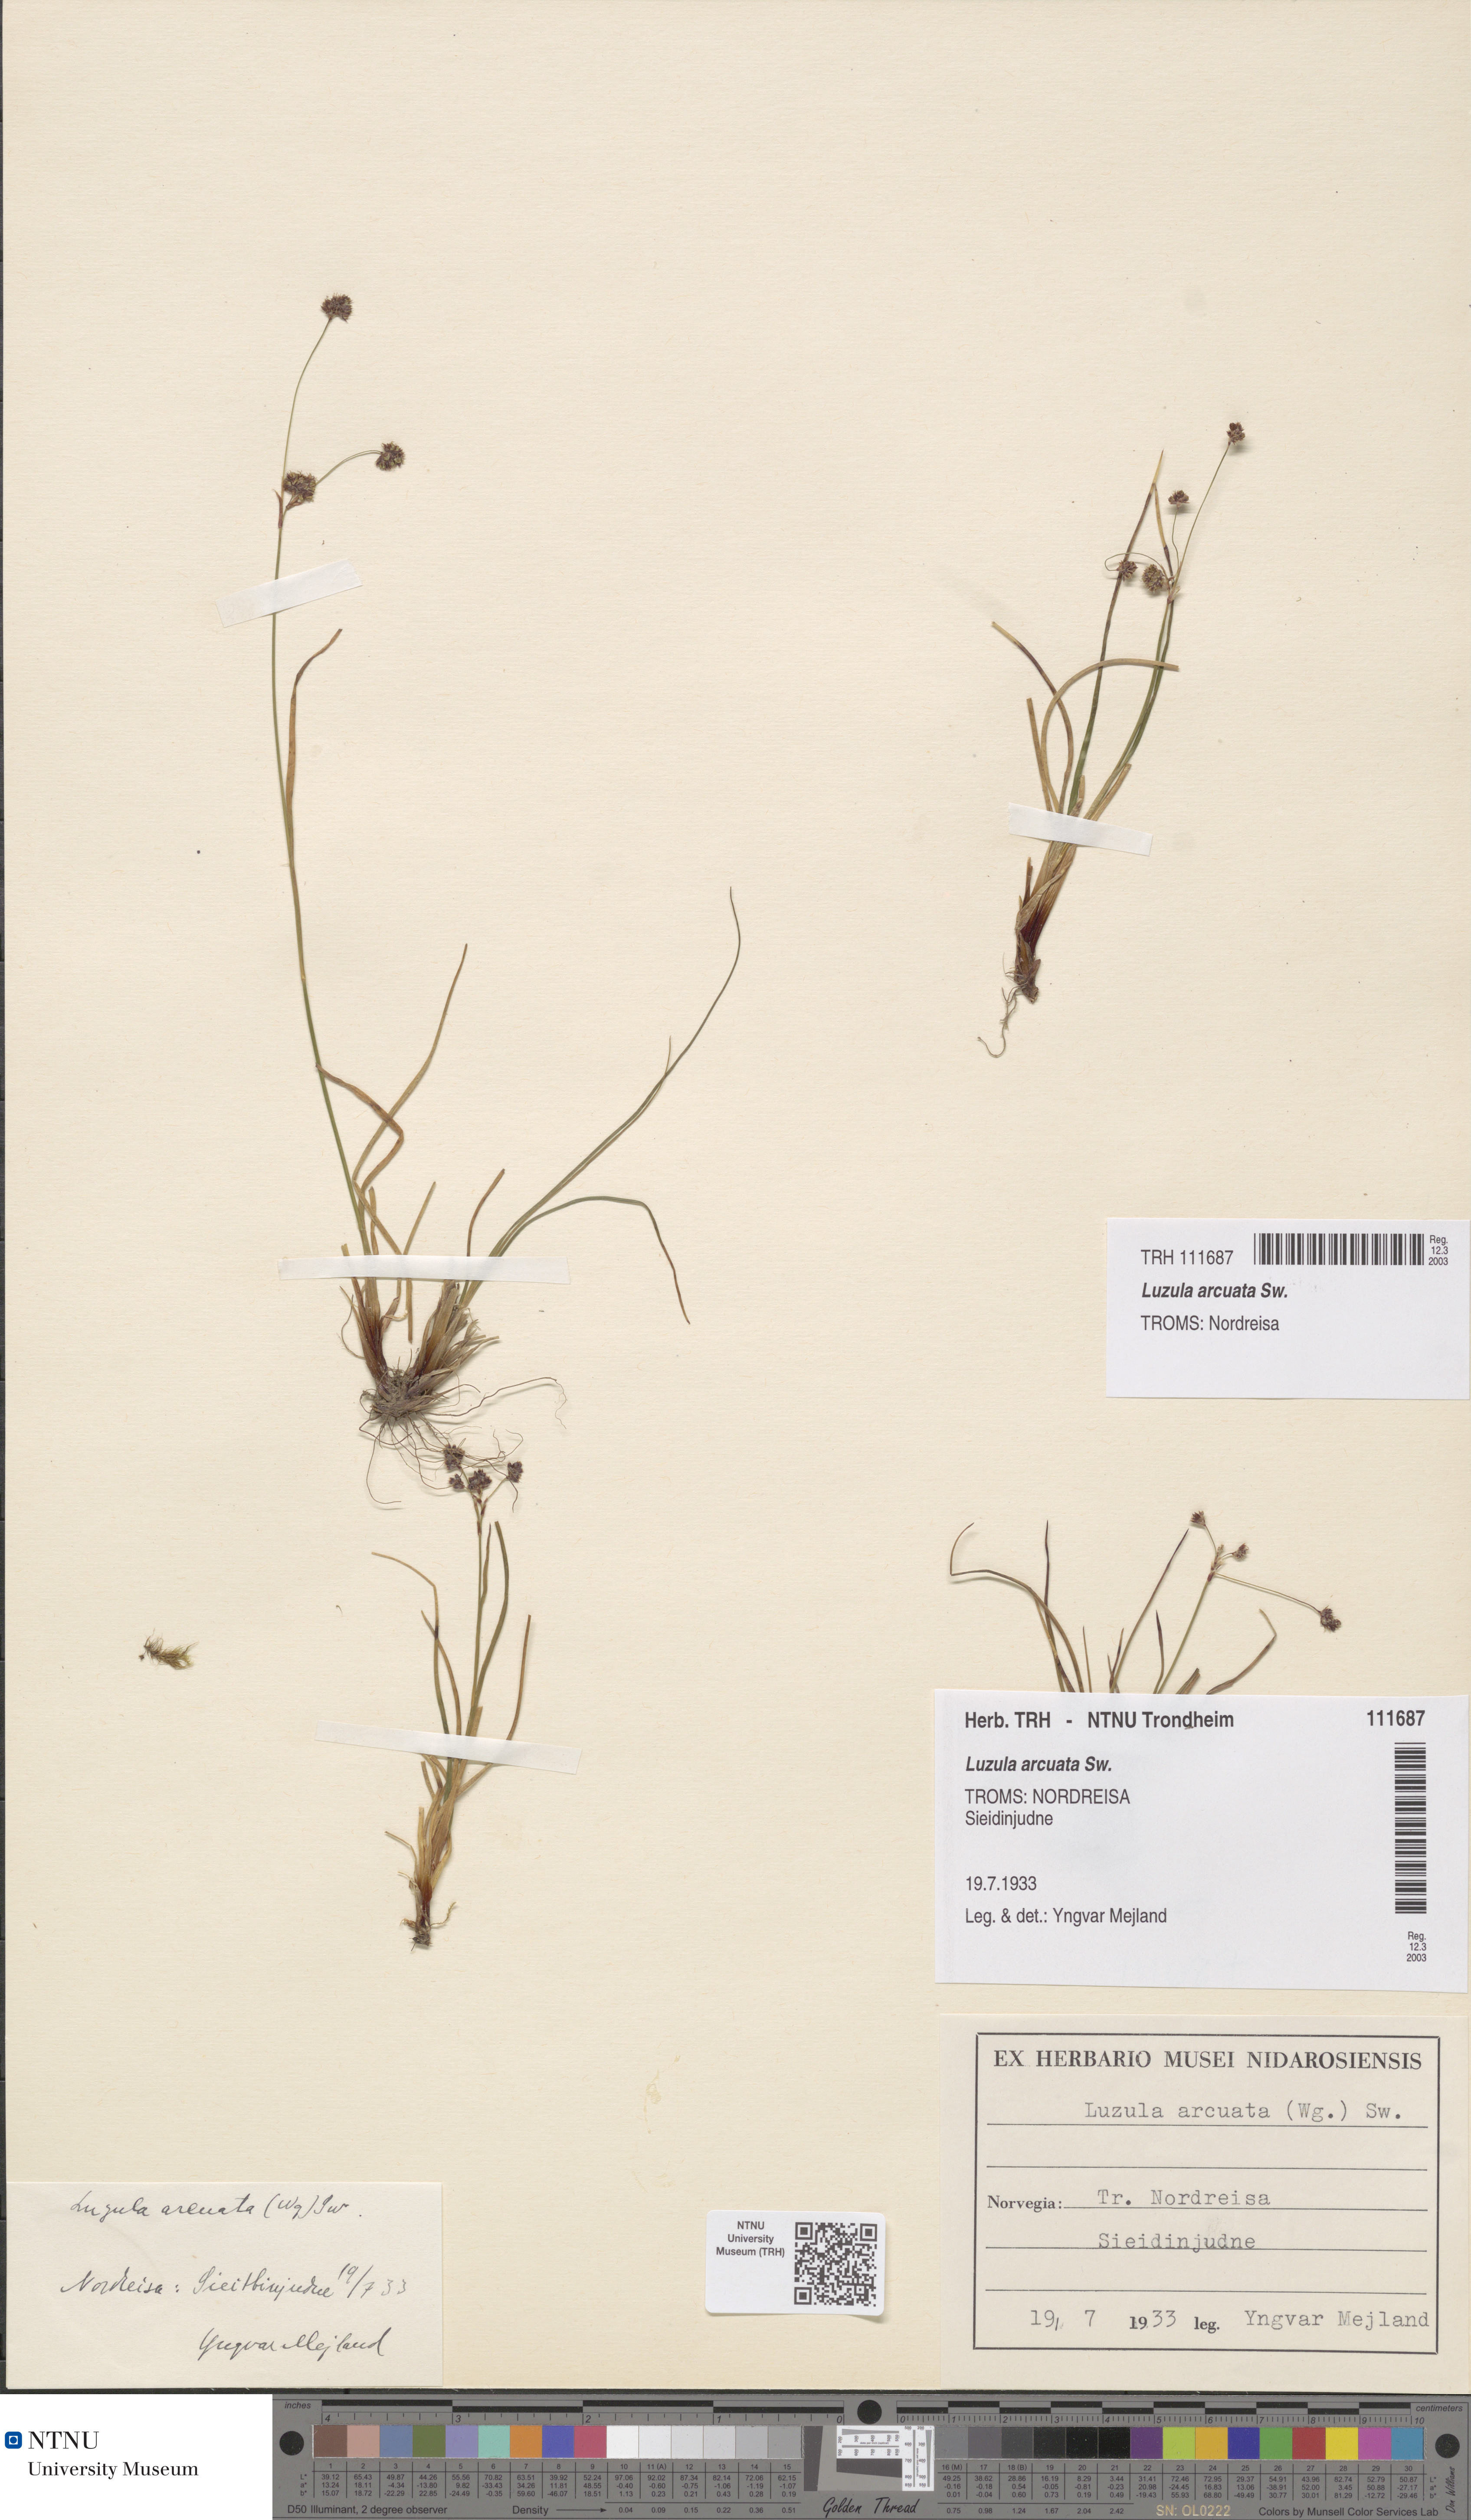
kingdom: Plantae
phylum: Tracheophyta
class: Liliopsida
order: Poales
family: Juncaceae
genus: Luzula
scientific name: Luzula arcuata
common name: Curved wood-rush
